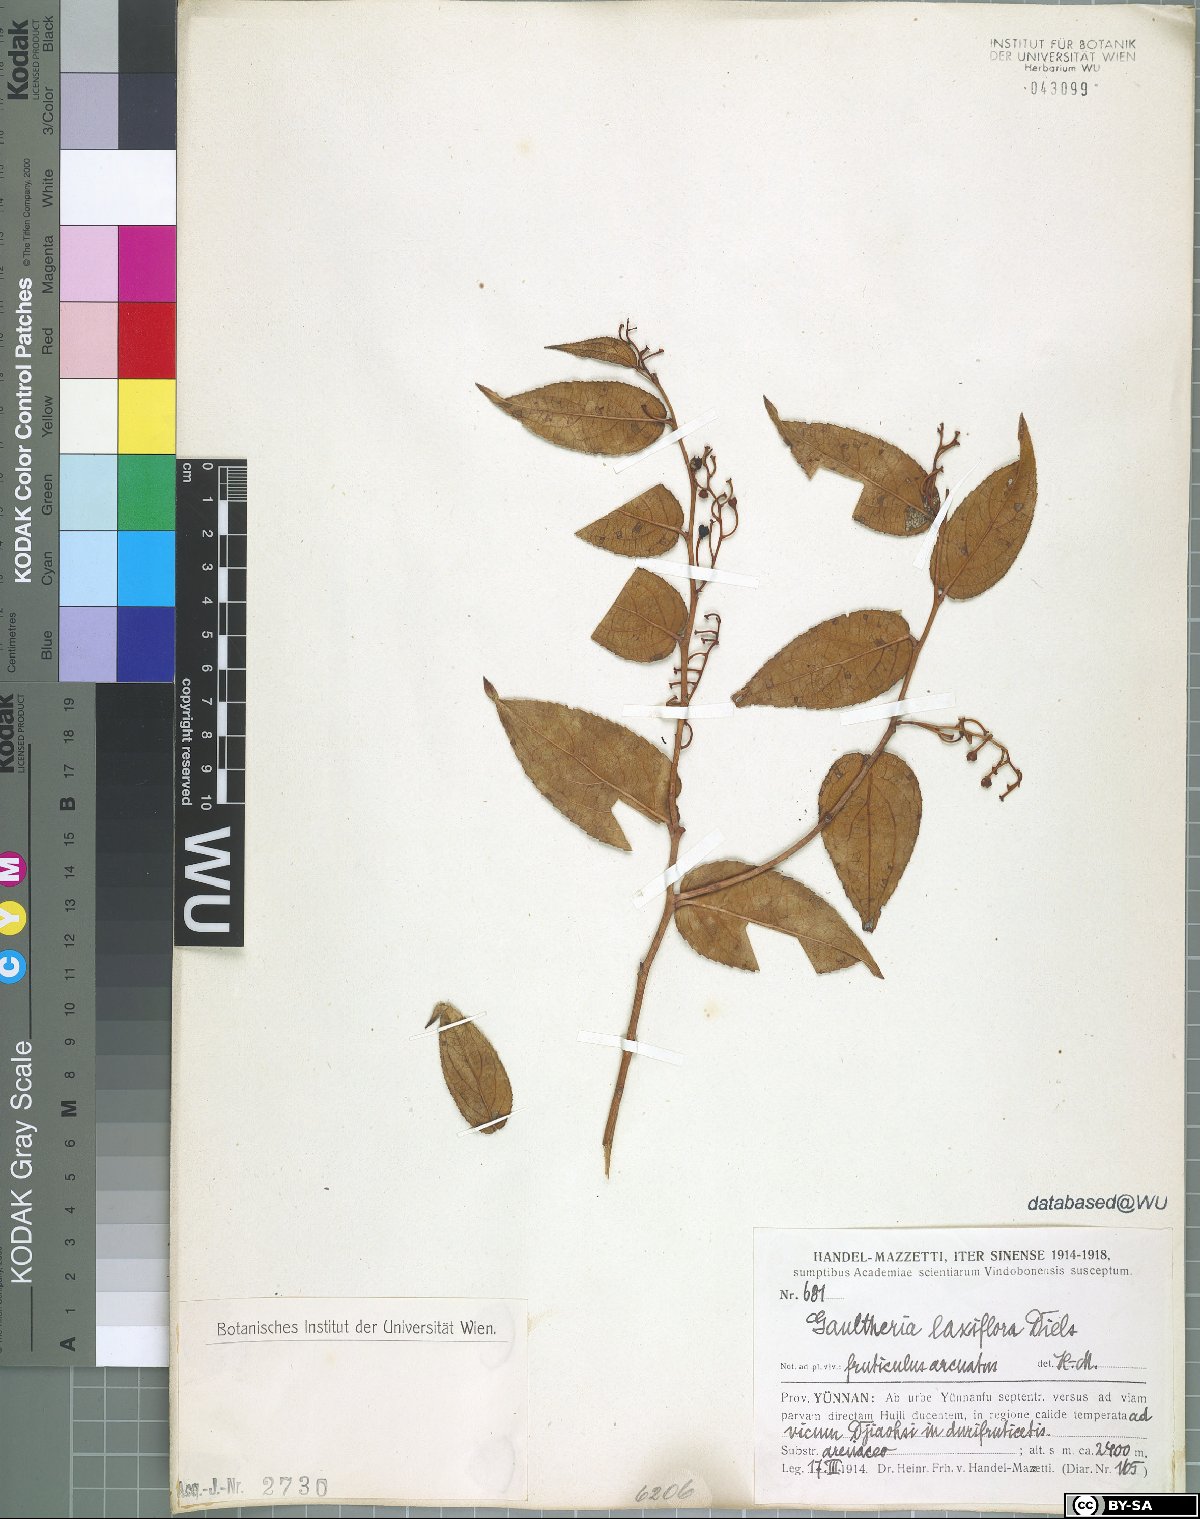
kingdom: Plantae
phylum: Tracheophyta
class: Magnoliopsida
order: Ericales
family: Ericaceae
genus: Gaultheria
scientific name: Gaultheria leucocarpa
